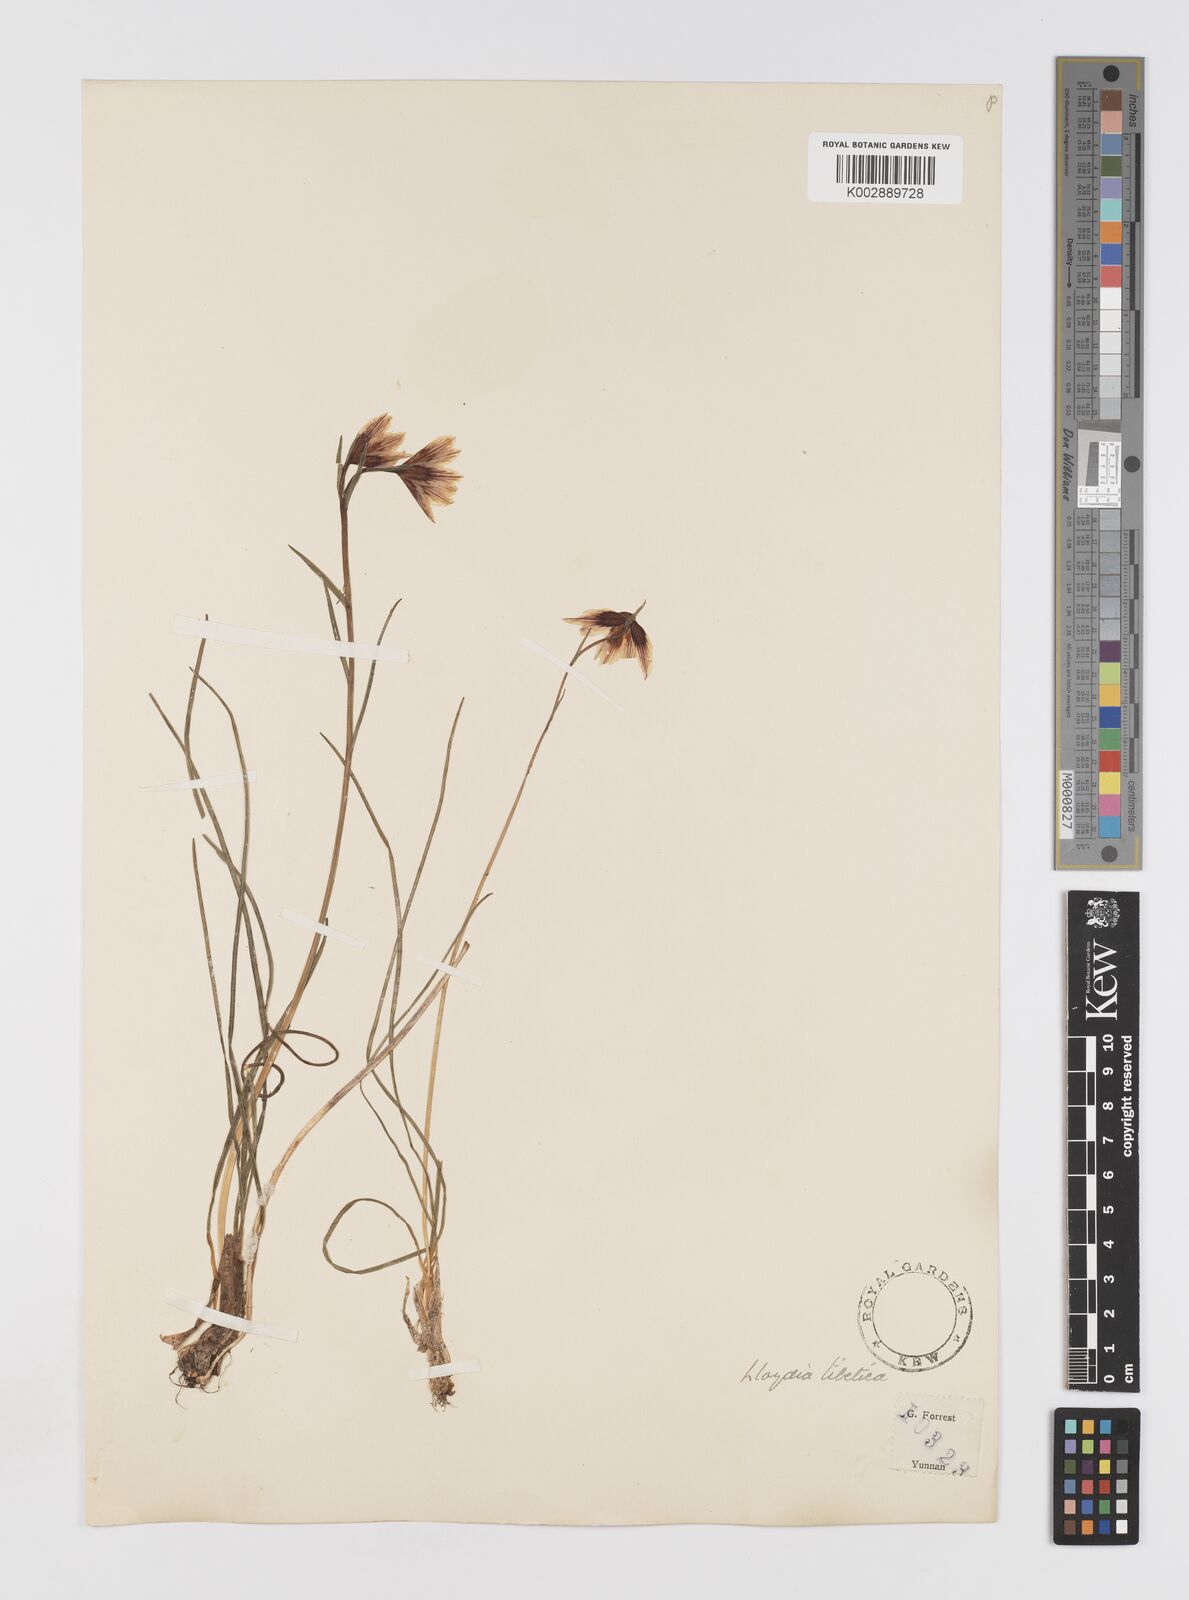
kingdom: Plantae
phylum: Tracheophyta
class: Liliopsida
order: Liliales
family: Liliaceae
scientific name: Liliaceae
